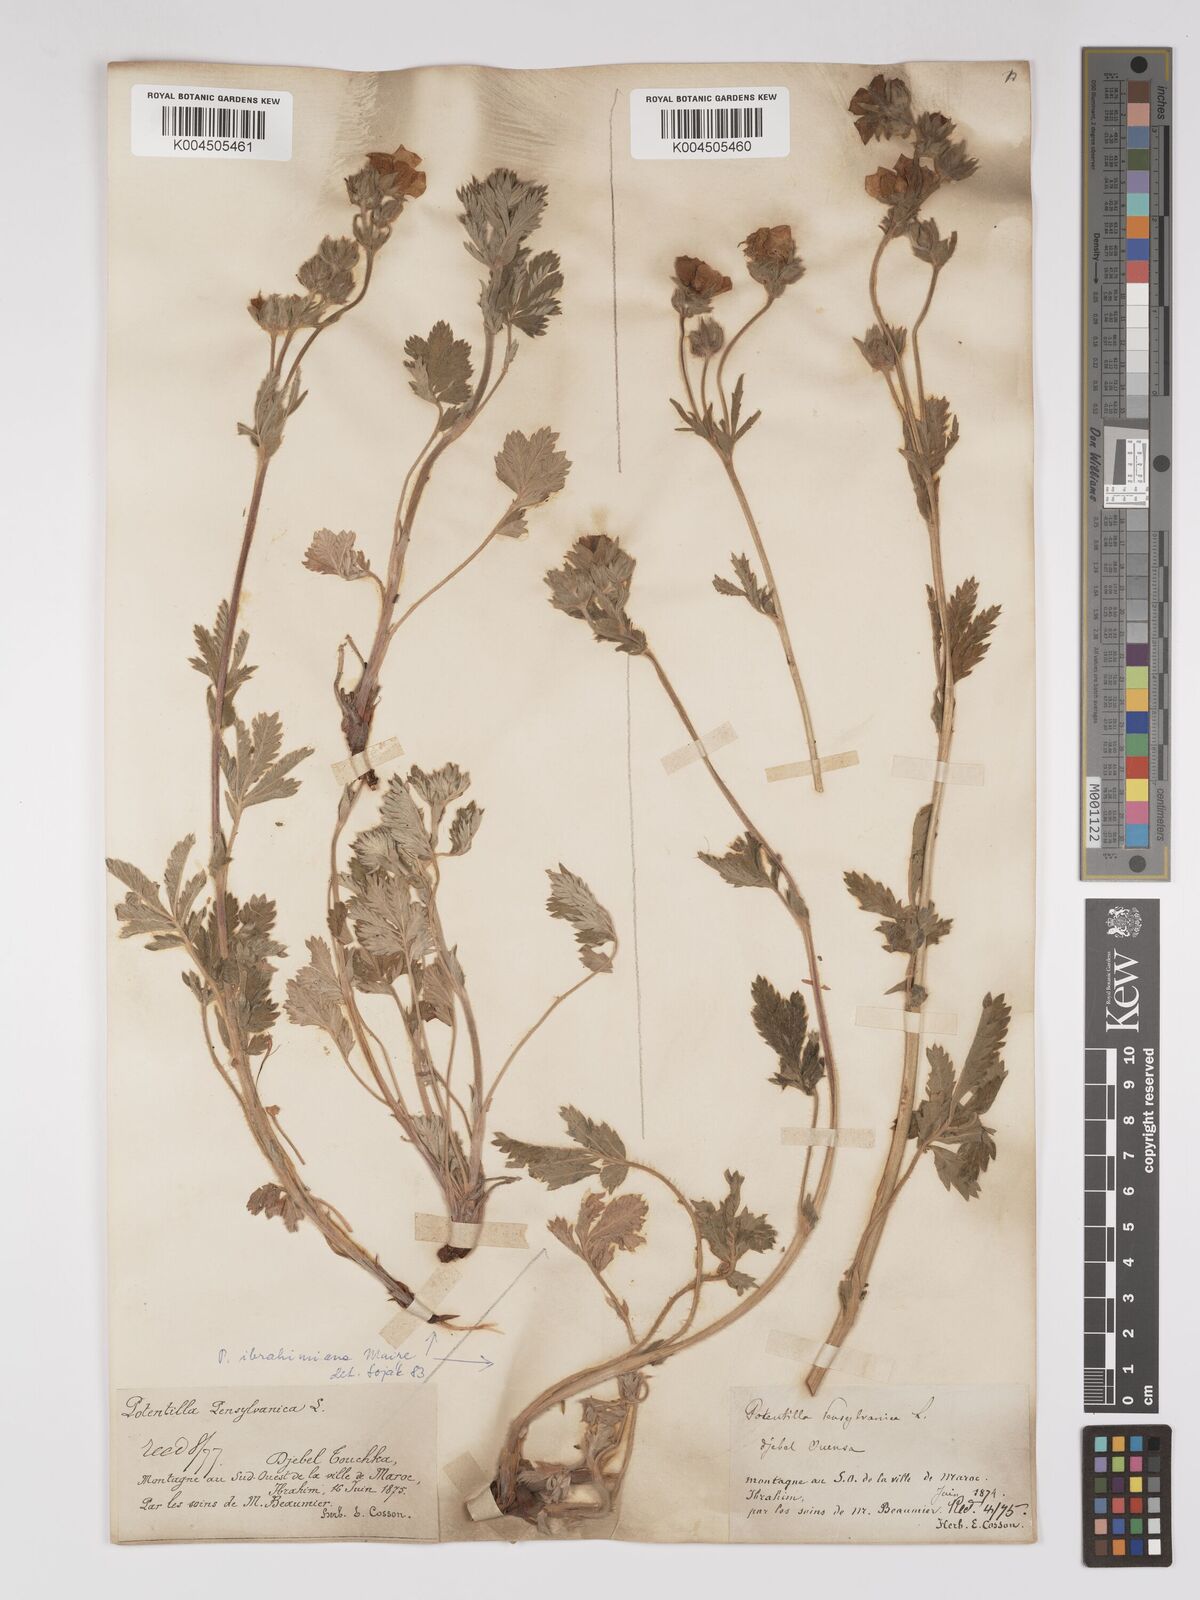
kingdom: Plantae
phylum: Tracheophyta
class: Magnoliopsida
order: Rosales
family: Rosaceae
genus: Potentilla
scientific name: Potentilla pensylvanica
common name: Pennsylvania cinquefoil
